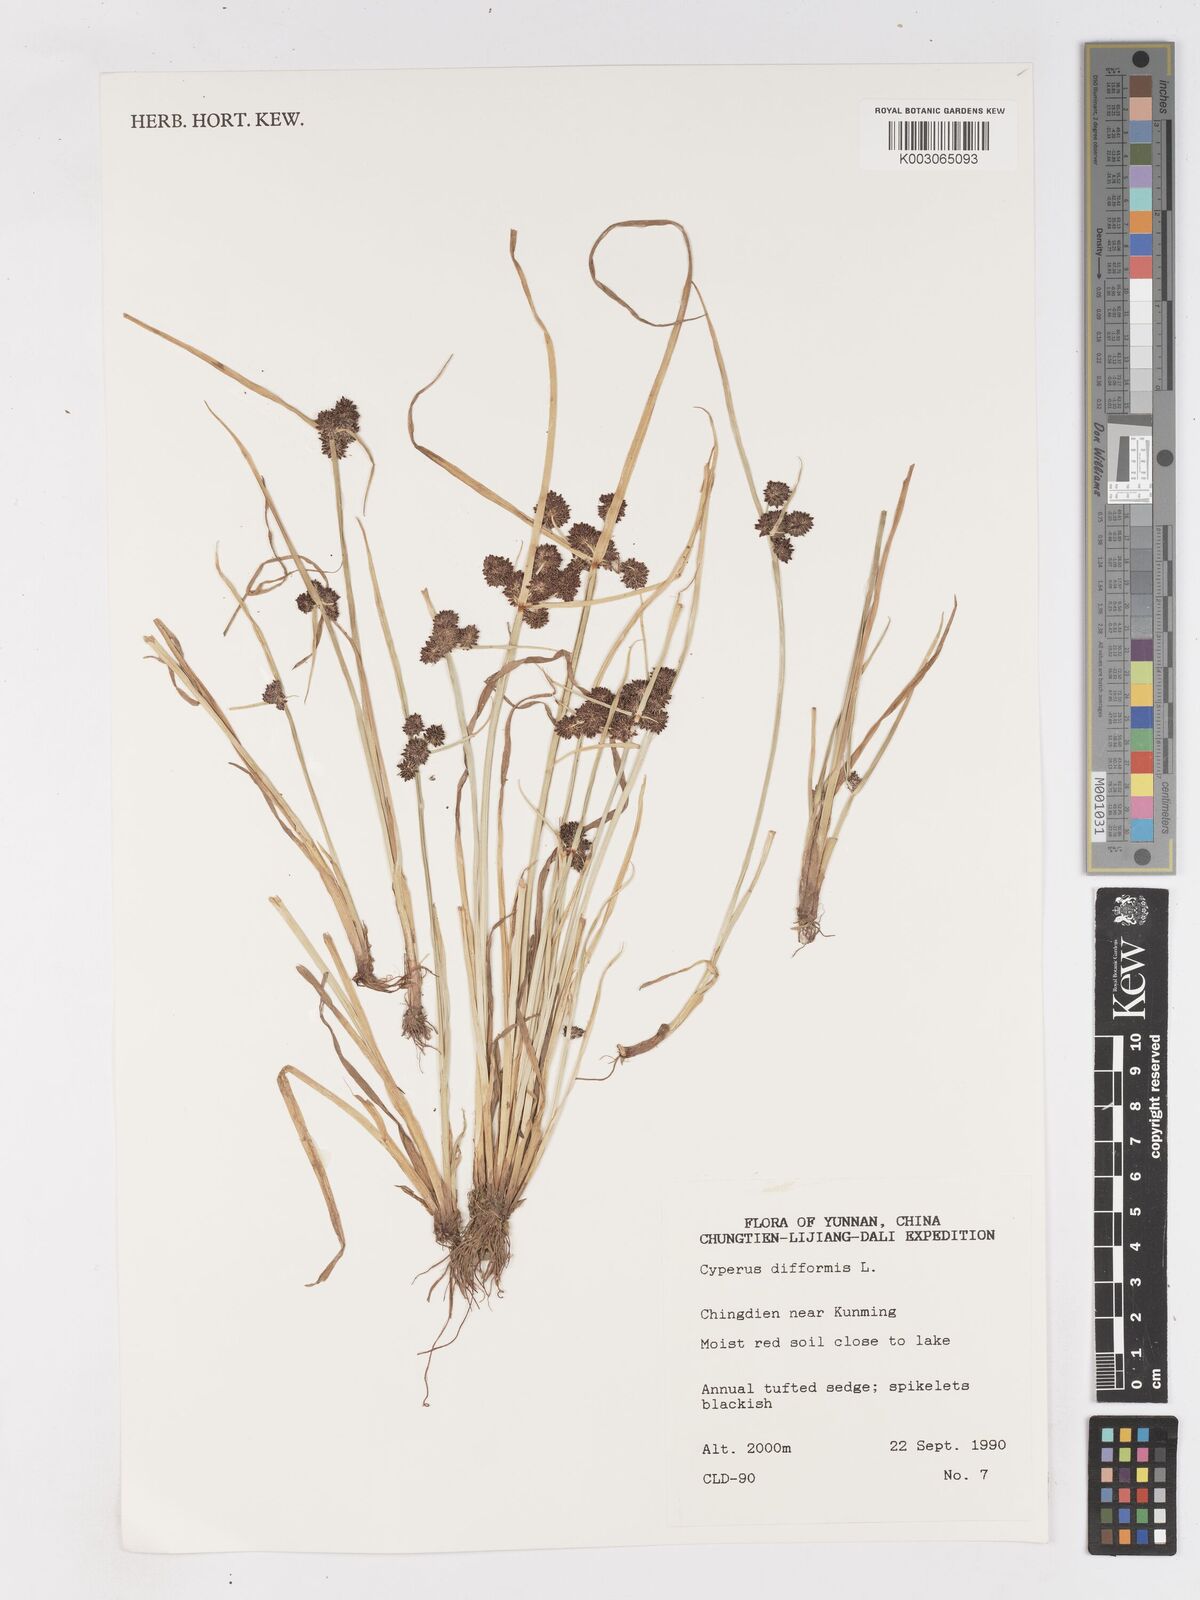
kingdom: Plantae
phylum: Tracheophyta
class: Liliopsida
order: Poales
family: Cyperaceae
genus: Cyperus
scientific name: Cyperus difformis
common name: Variable flatsedge
